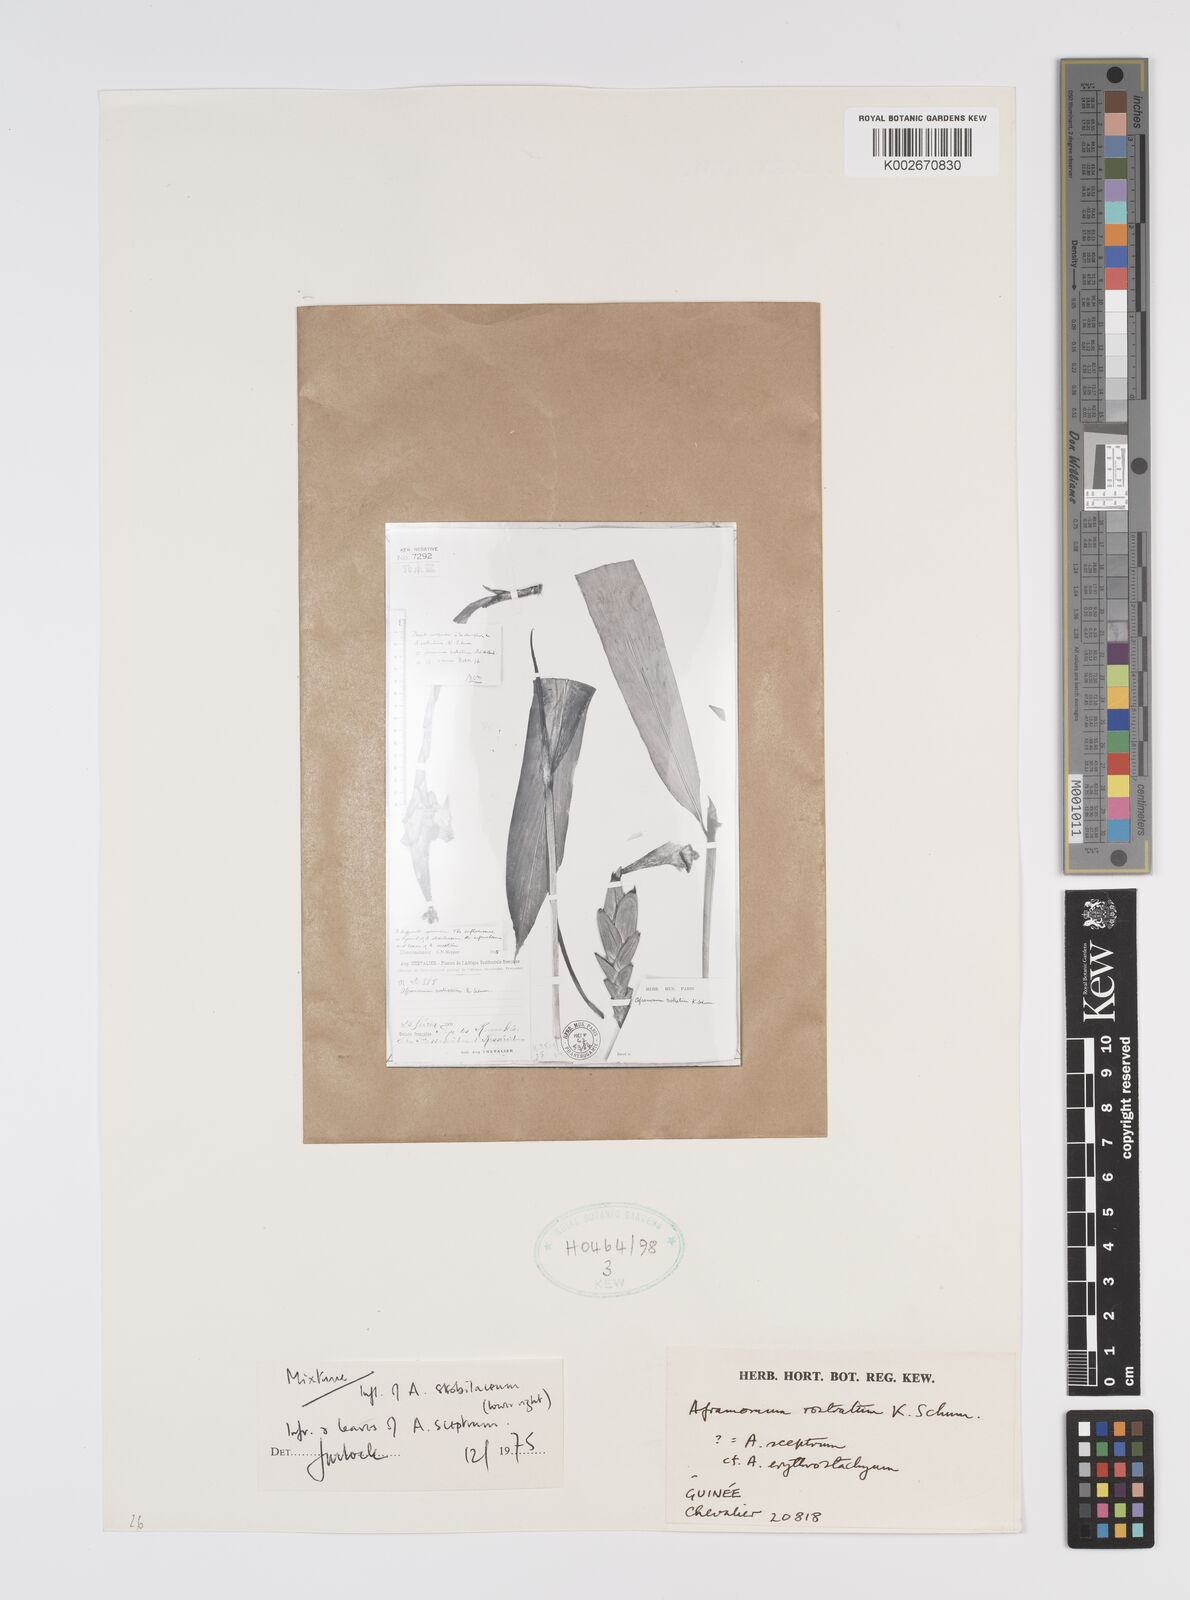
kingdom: Plantae
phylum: Tracheophyta
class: Liliopsida
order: Zingiberales
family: Zingiberaceae
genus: Aframomum
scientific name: Aframomum cereum
